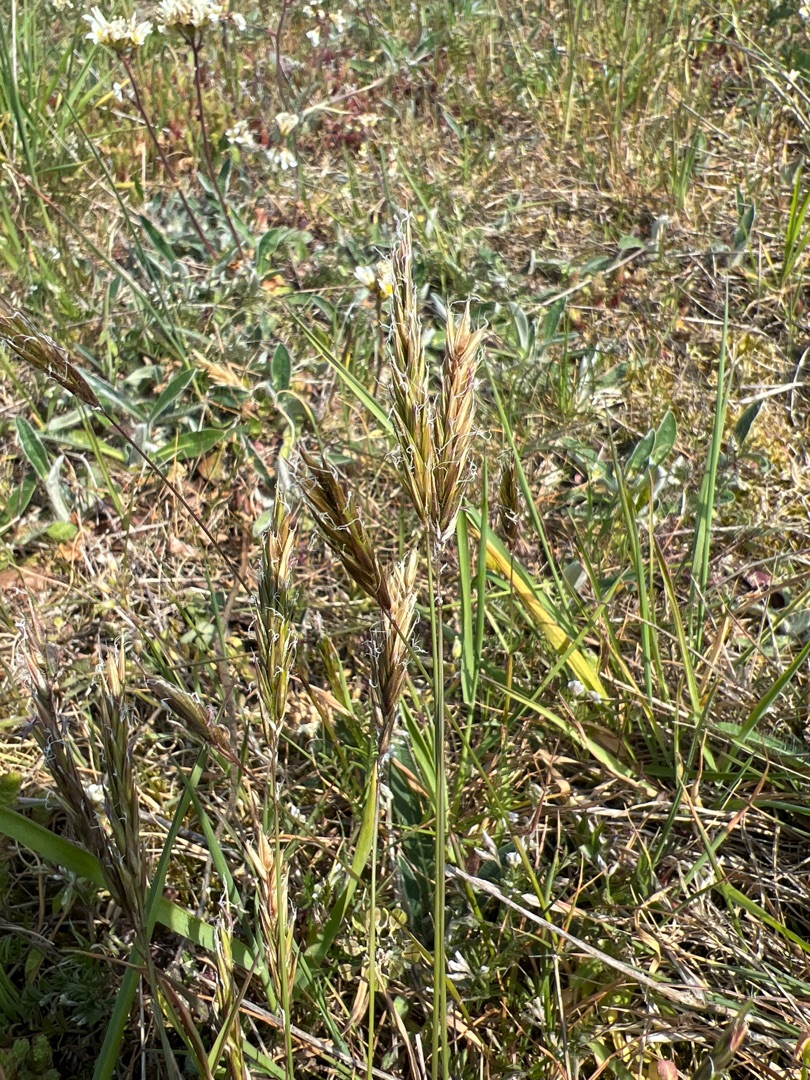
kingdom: Plantae
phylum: Tracheophyta
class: Liliopsida
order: Poales
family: Poaceae
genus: Anthoxanthum
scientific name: Anthoxanthum odoratum
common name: Vellugtende gulaks
